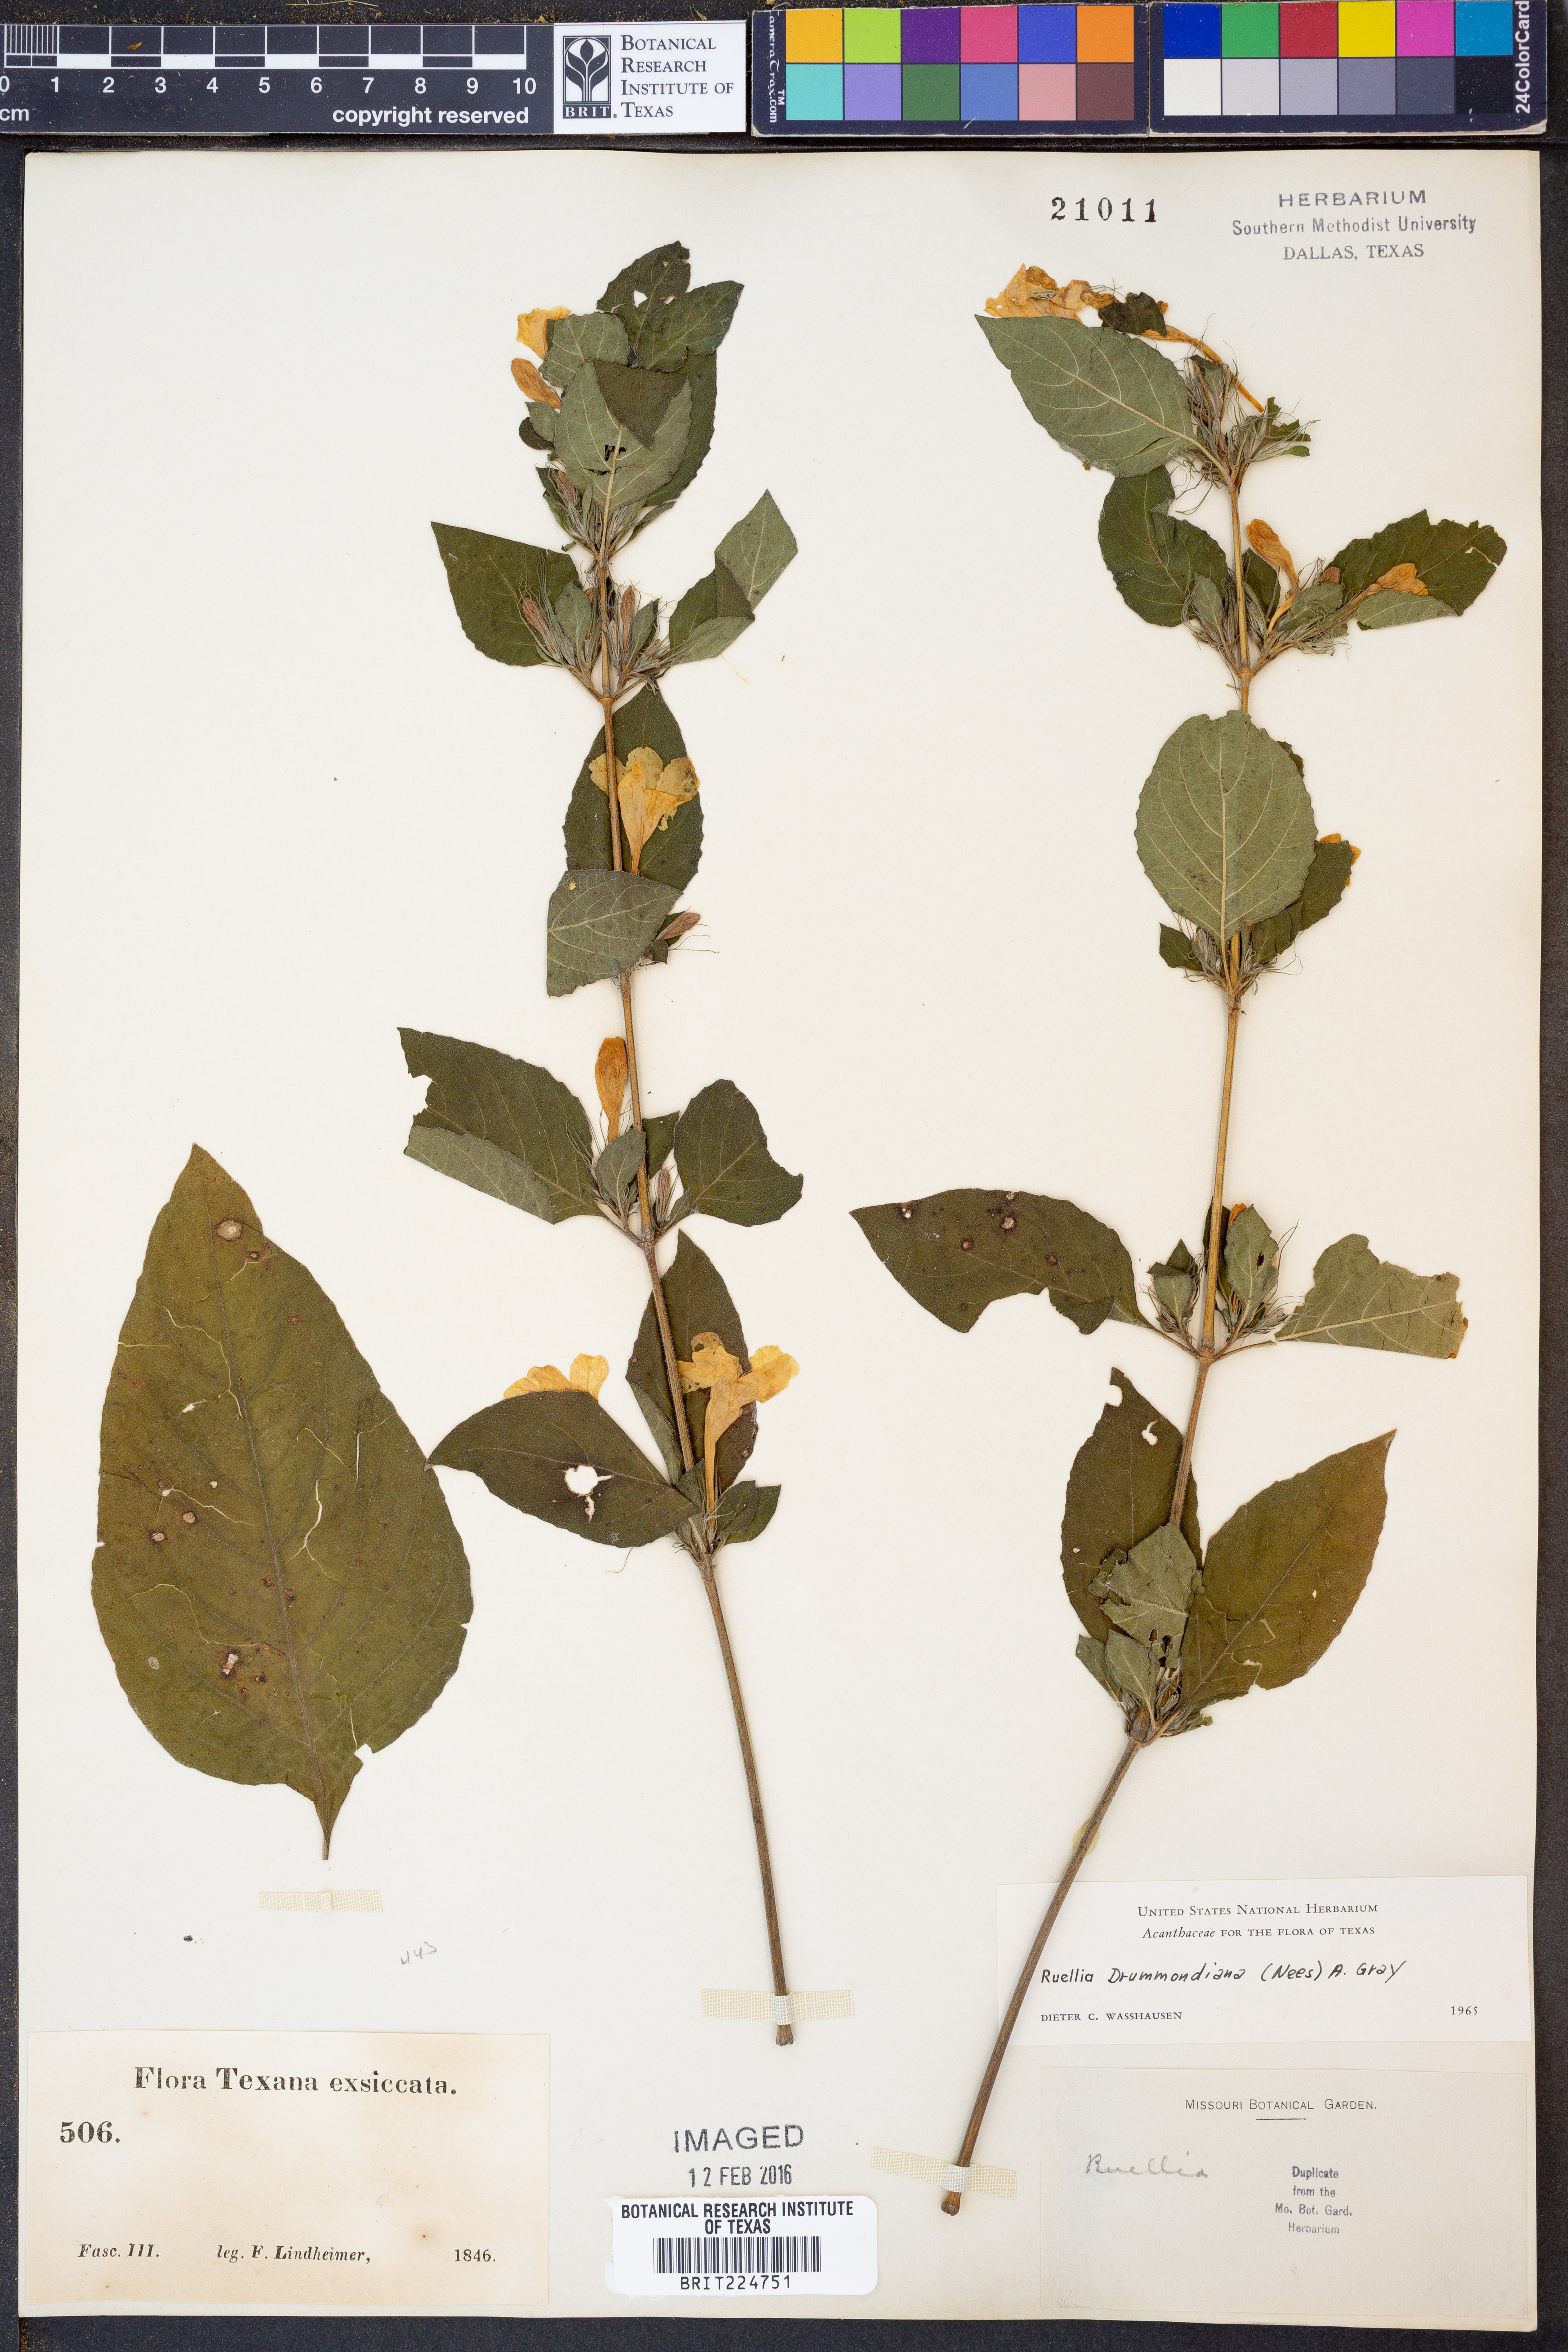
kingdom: Plantae
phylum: Tracheophyta
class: Magnoliopsida
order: Lamiales
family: Acanthaceae
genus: Ruellia
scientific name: Ruellia drummondiana
